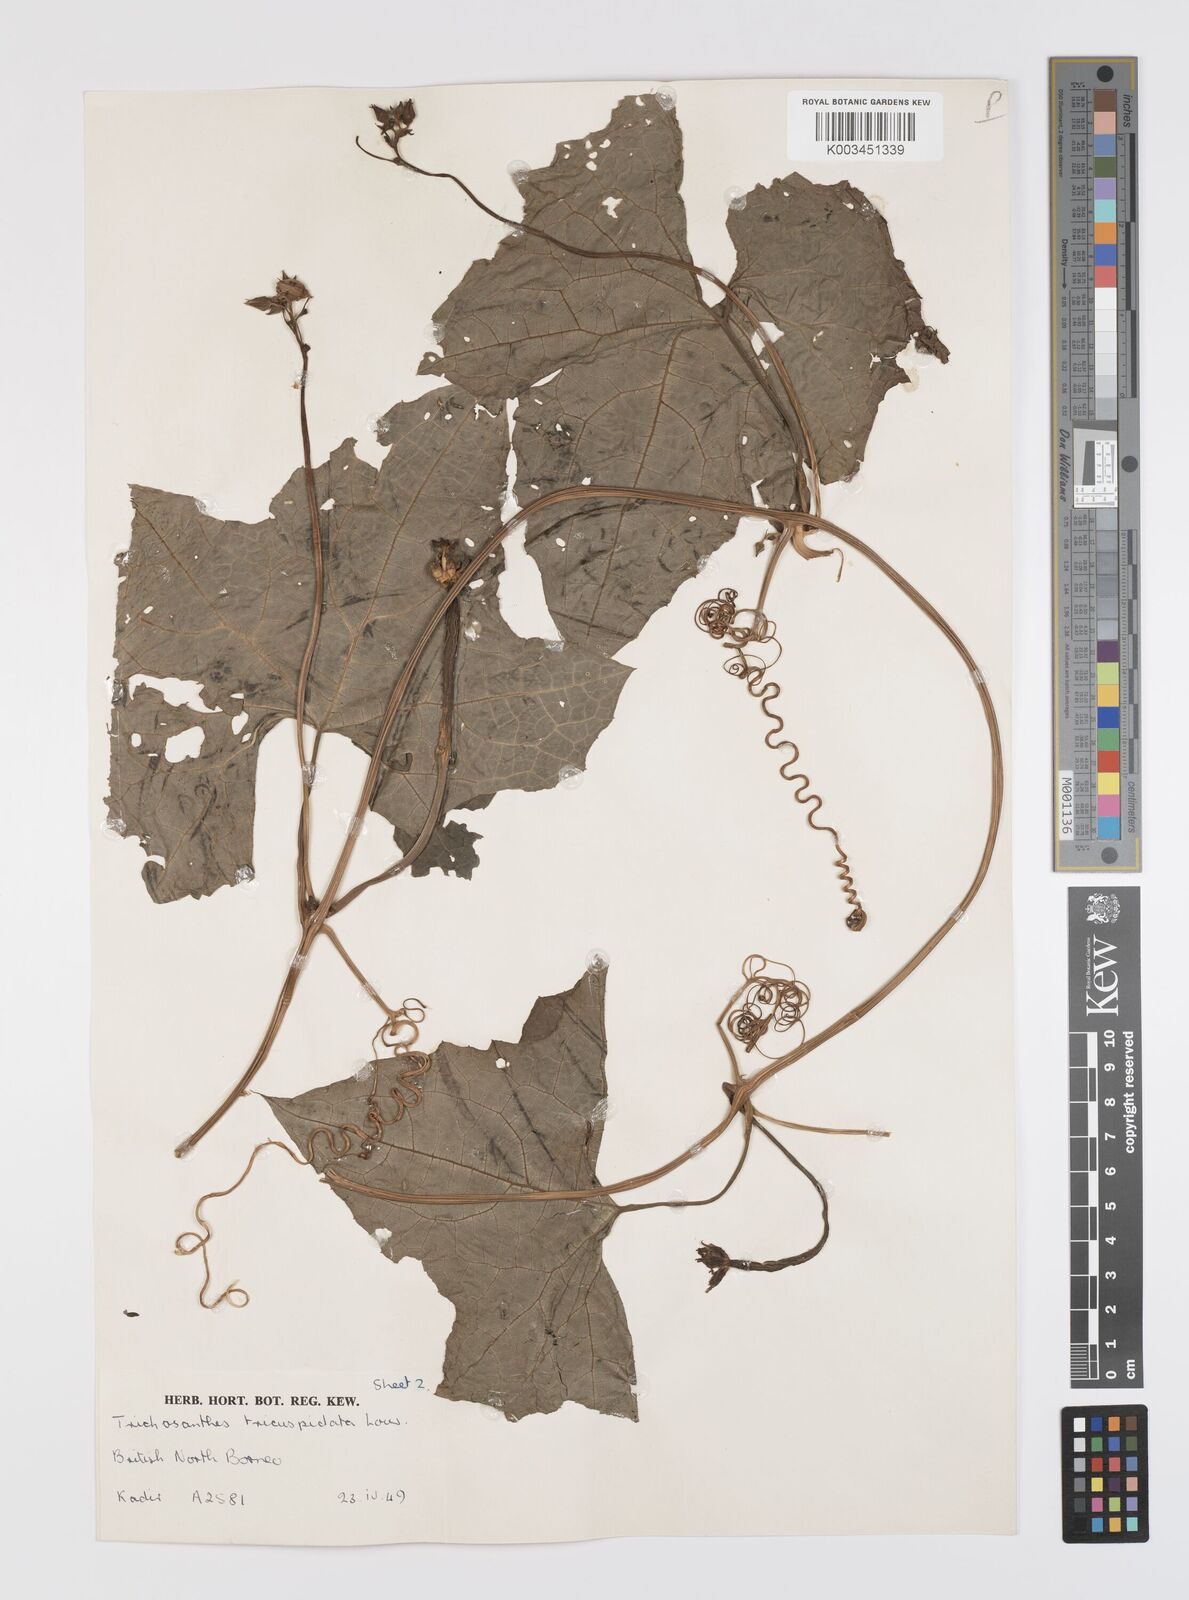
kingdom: Plantae
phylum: Tracheophyta
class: Magnoliopsida
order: Cucurbitales
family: Cucurbitaceae
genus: Luffa
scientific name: Luffa acutangula
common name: Sinkwa towelsponge
